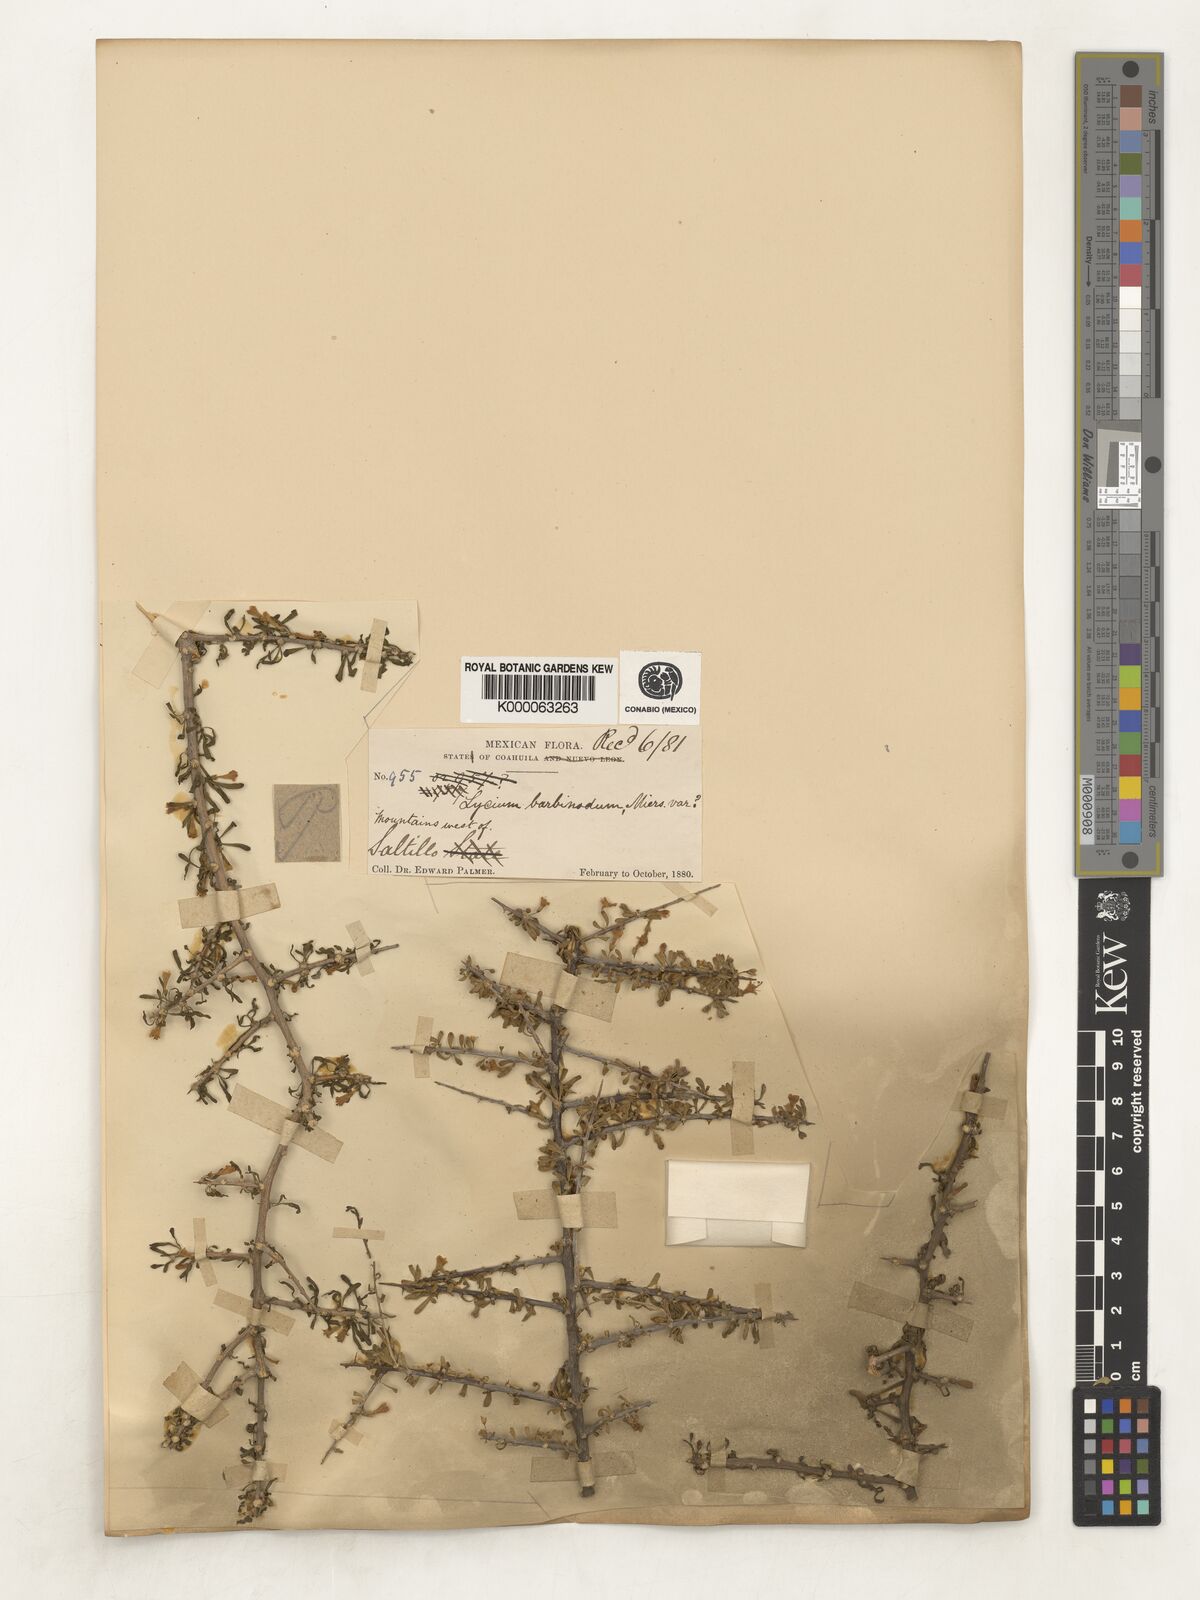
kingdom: Plantae
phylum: Tracheophyta
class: Magnoliopsida
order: Solanales
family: Solanaceae
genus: Lycium
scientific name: Lycium berlandieri
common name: Berlandier wolfberry
